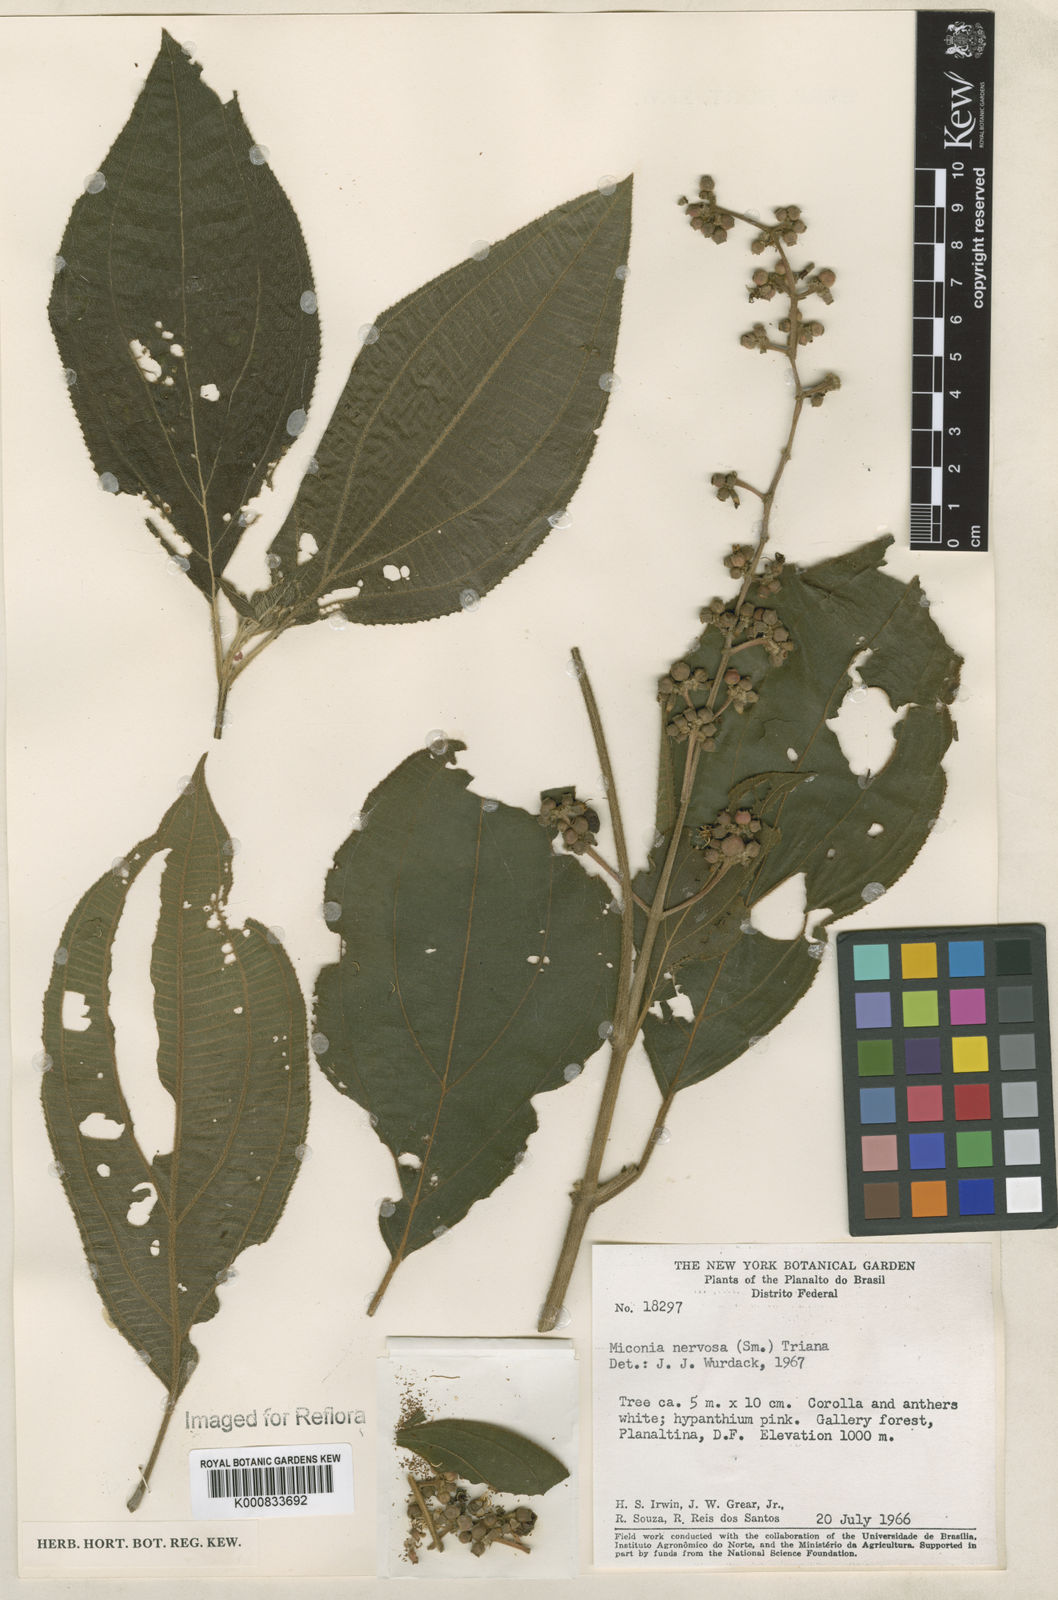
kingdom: Plantae
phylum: Tracheophyta
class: Magnoliopsida
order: Myrtales
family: Melastomataceae
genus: Miconia
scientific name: Miconia nervosa
